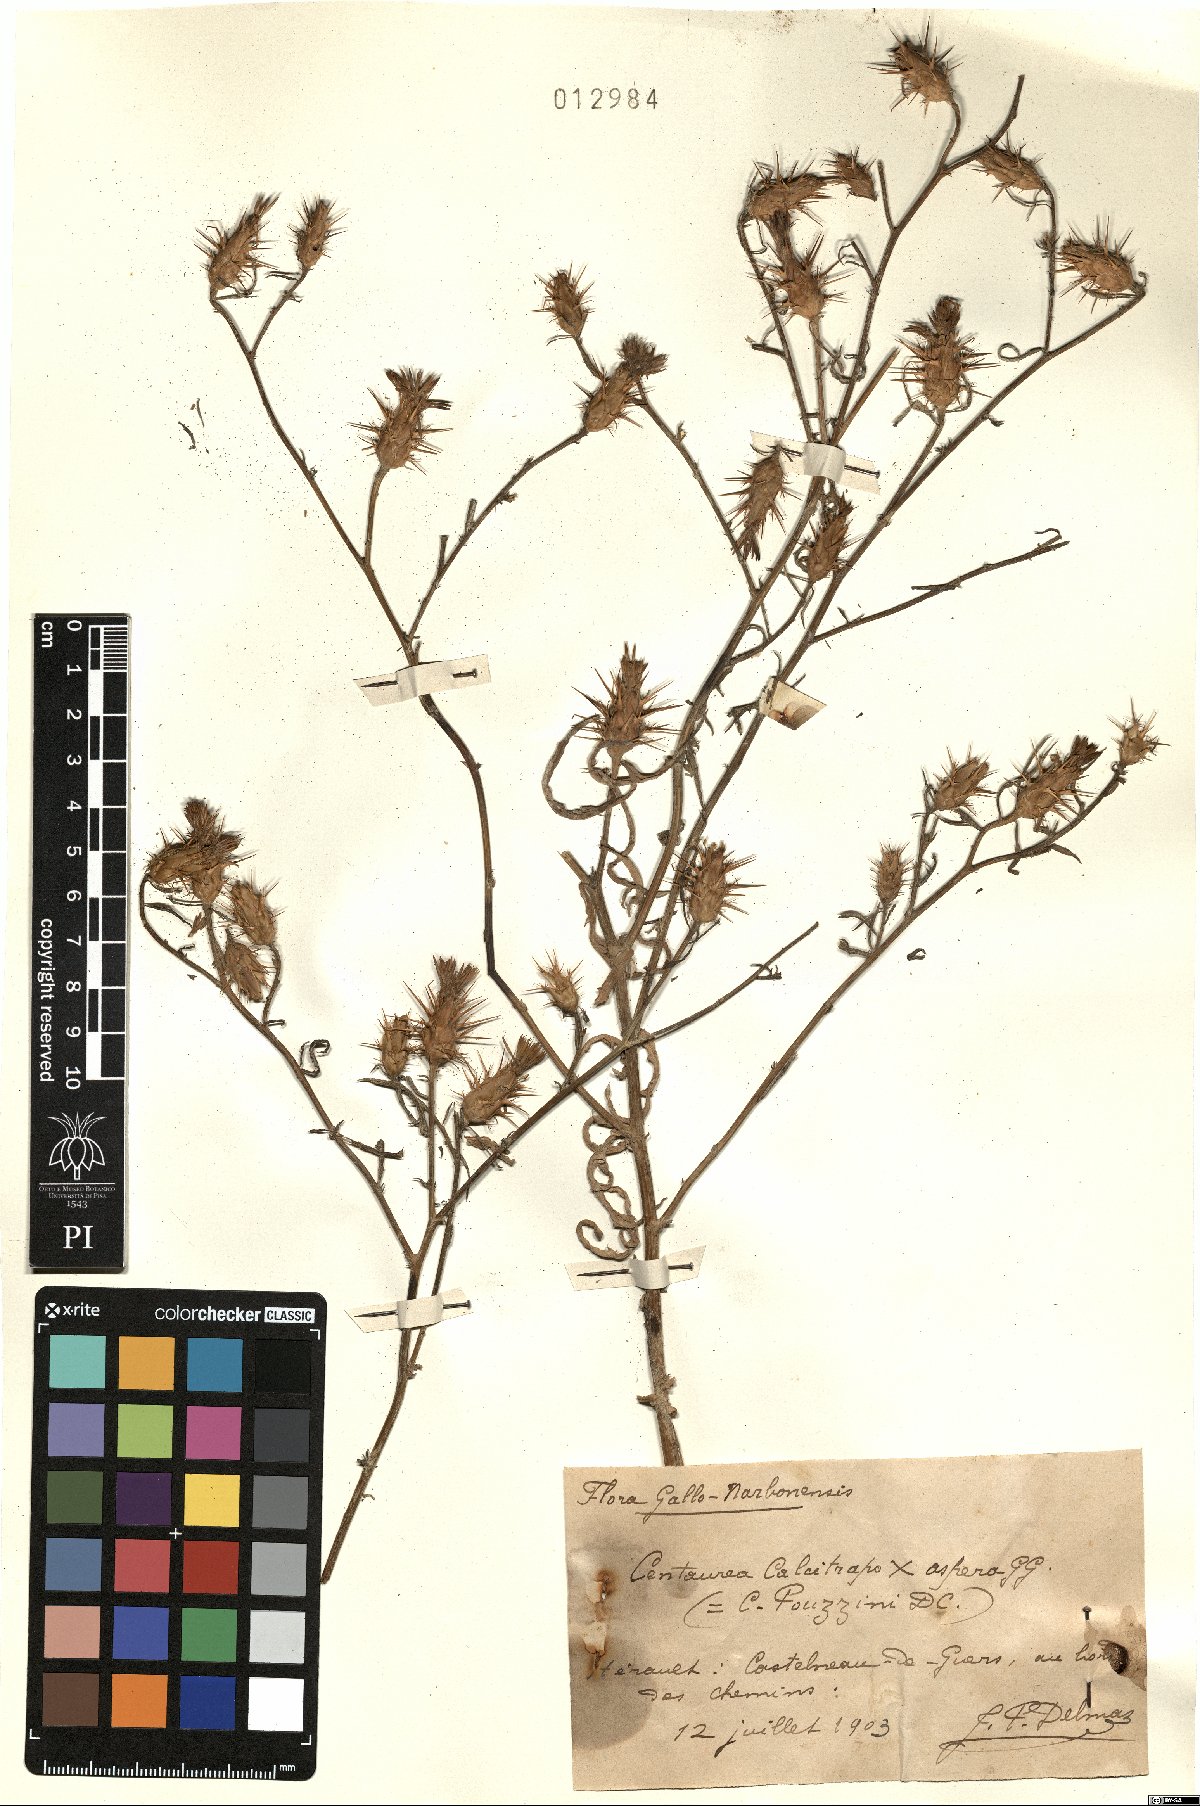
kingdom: Plantae
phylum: Tracheophyta
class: Magnoliopsida
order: Asterales
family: Asteraceae
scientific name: Asteraceae
